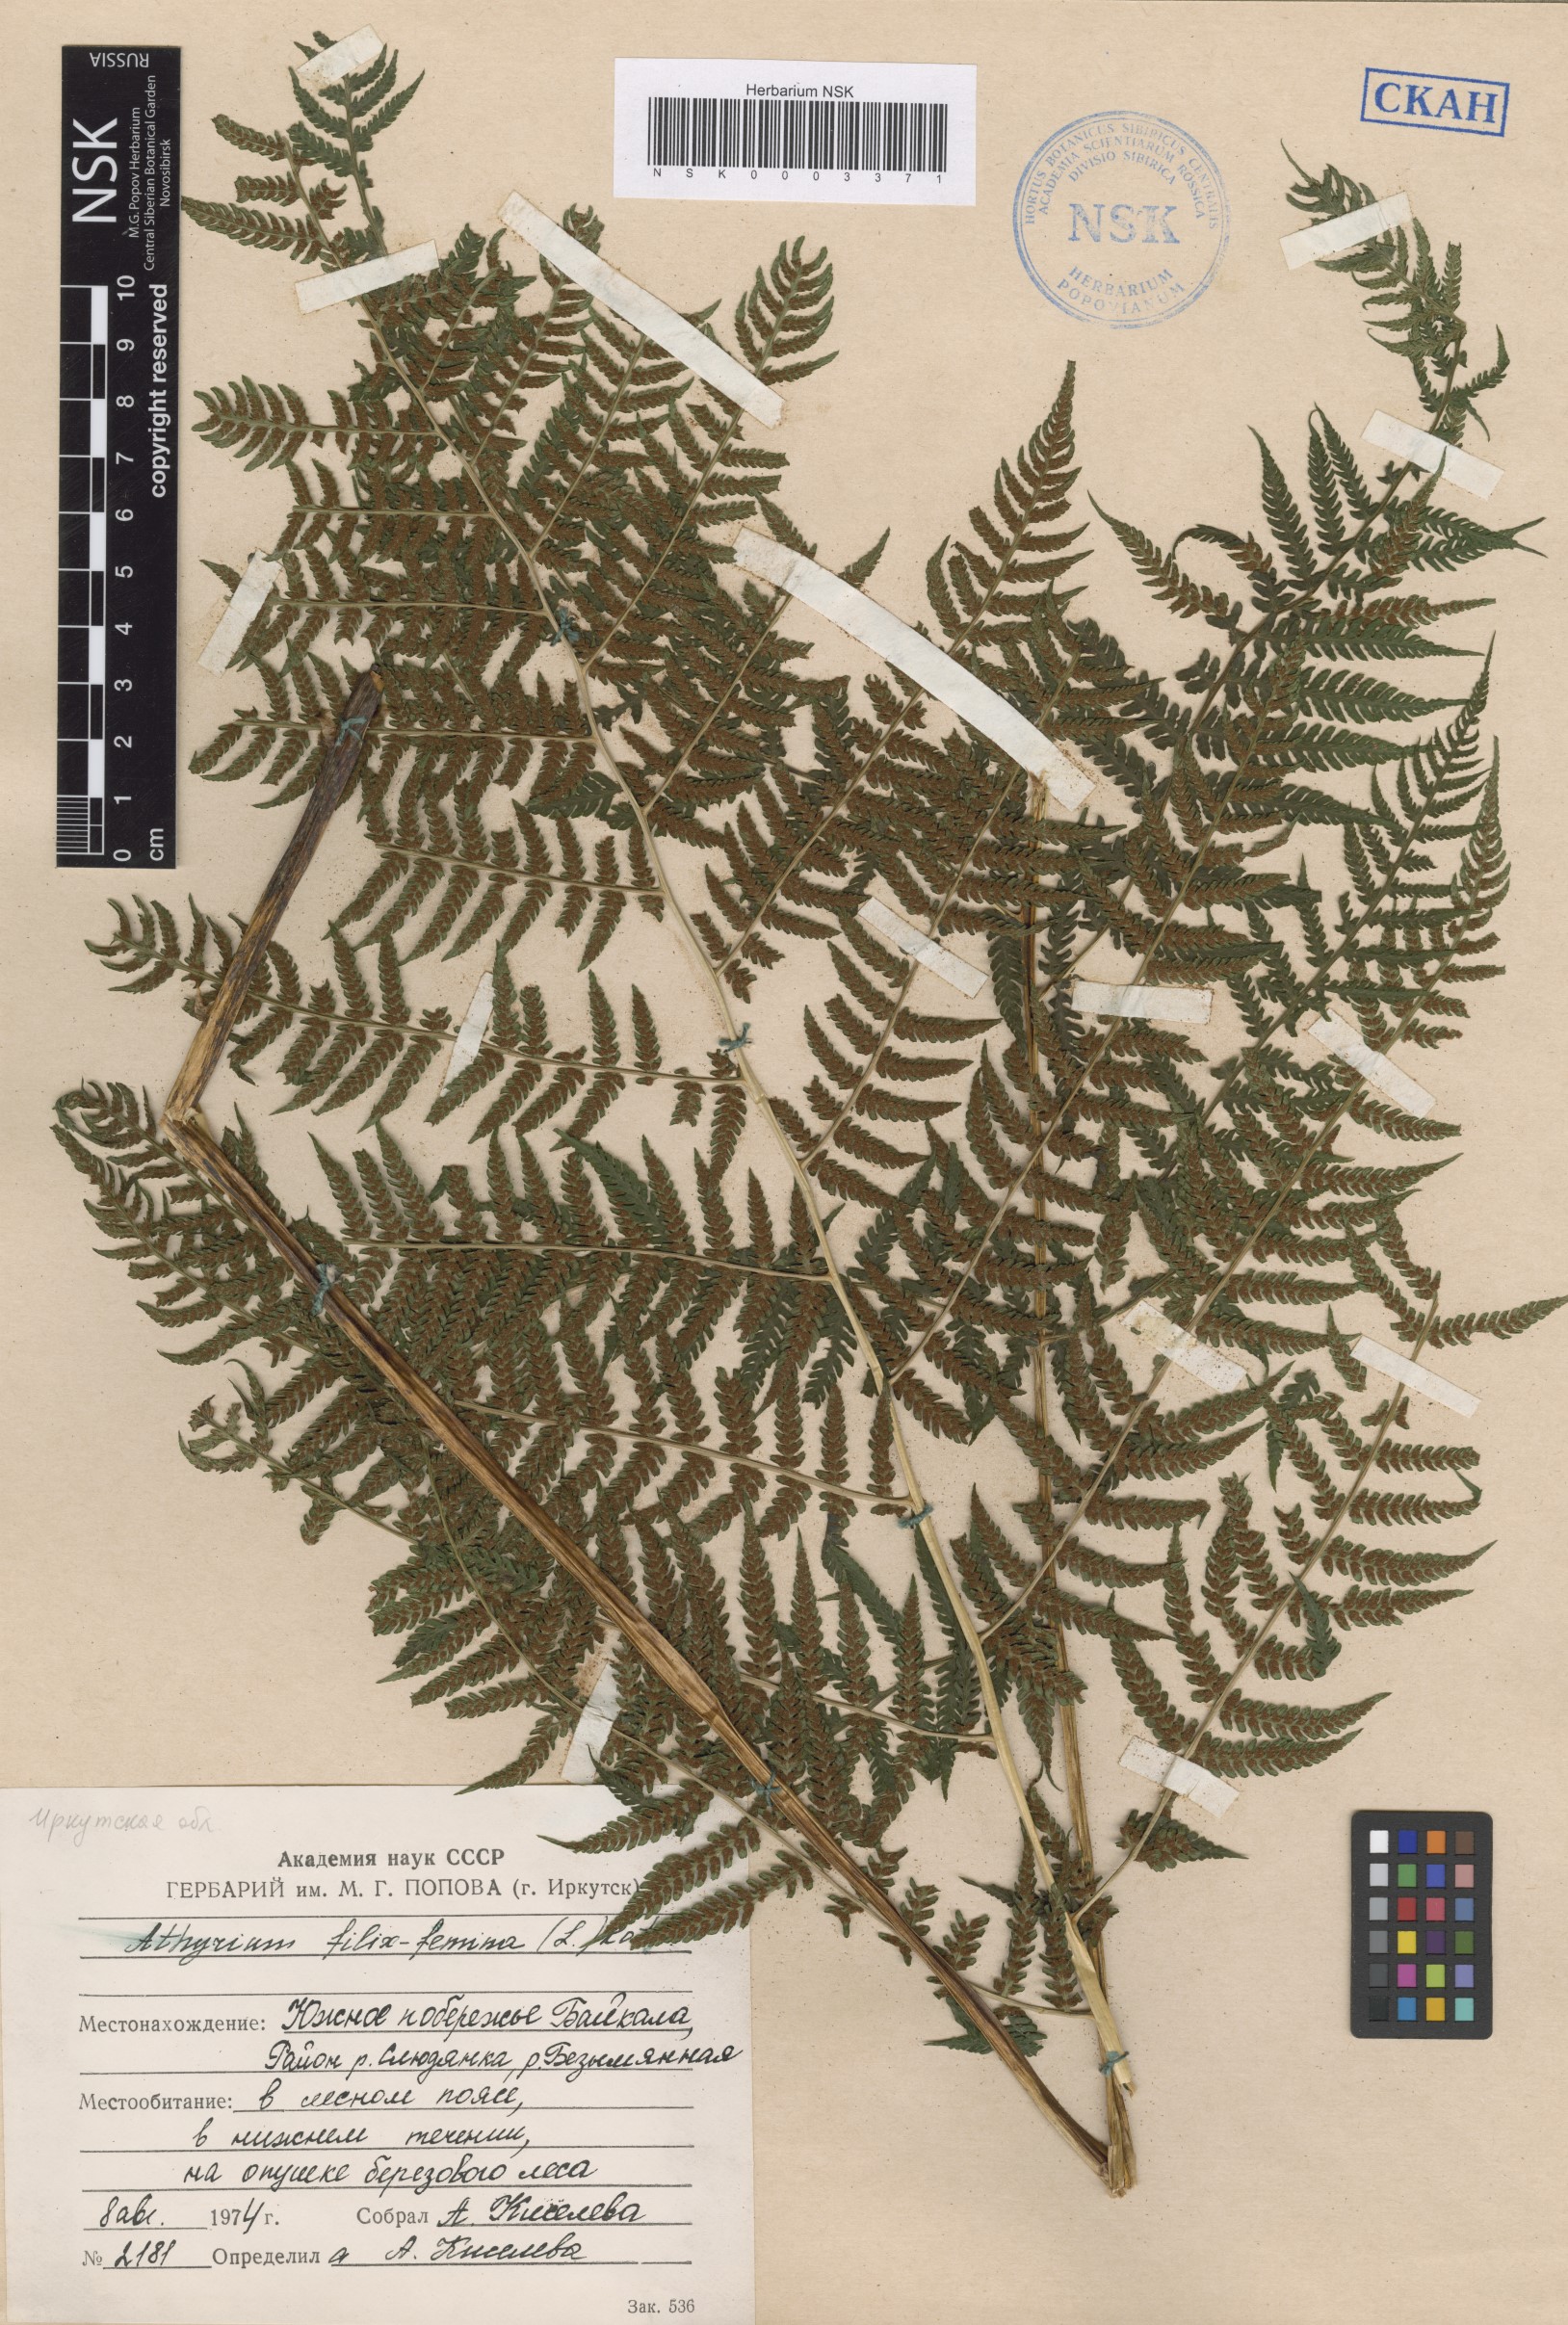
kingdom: Plantae
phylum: Tracheophyta
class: Polypodiopsida
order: Polypodiales
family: Athyriaceae
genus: Athyrium
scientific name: Athyrium filix-femina
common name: Lady fern
